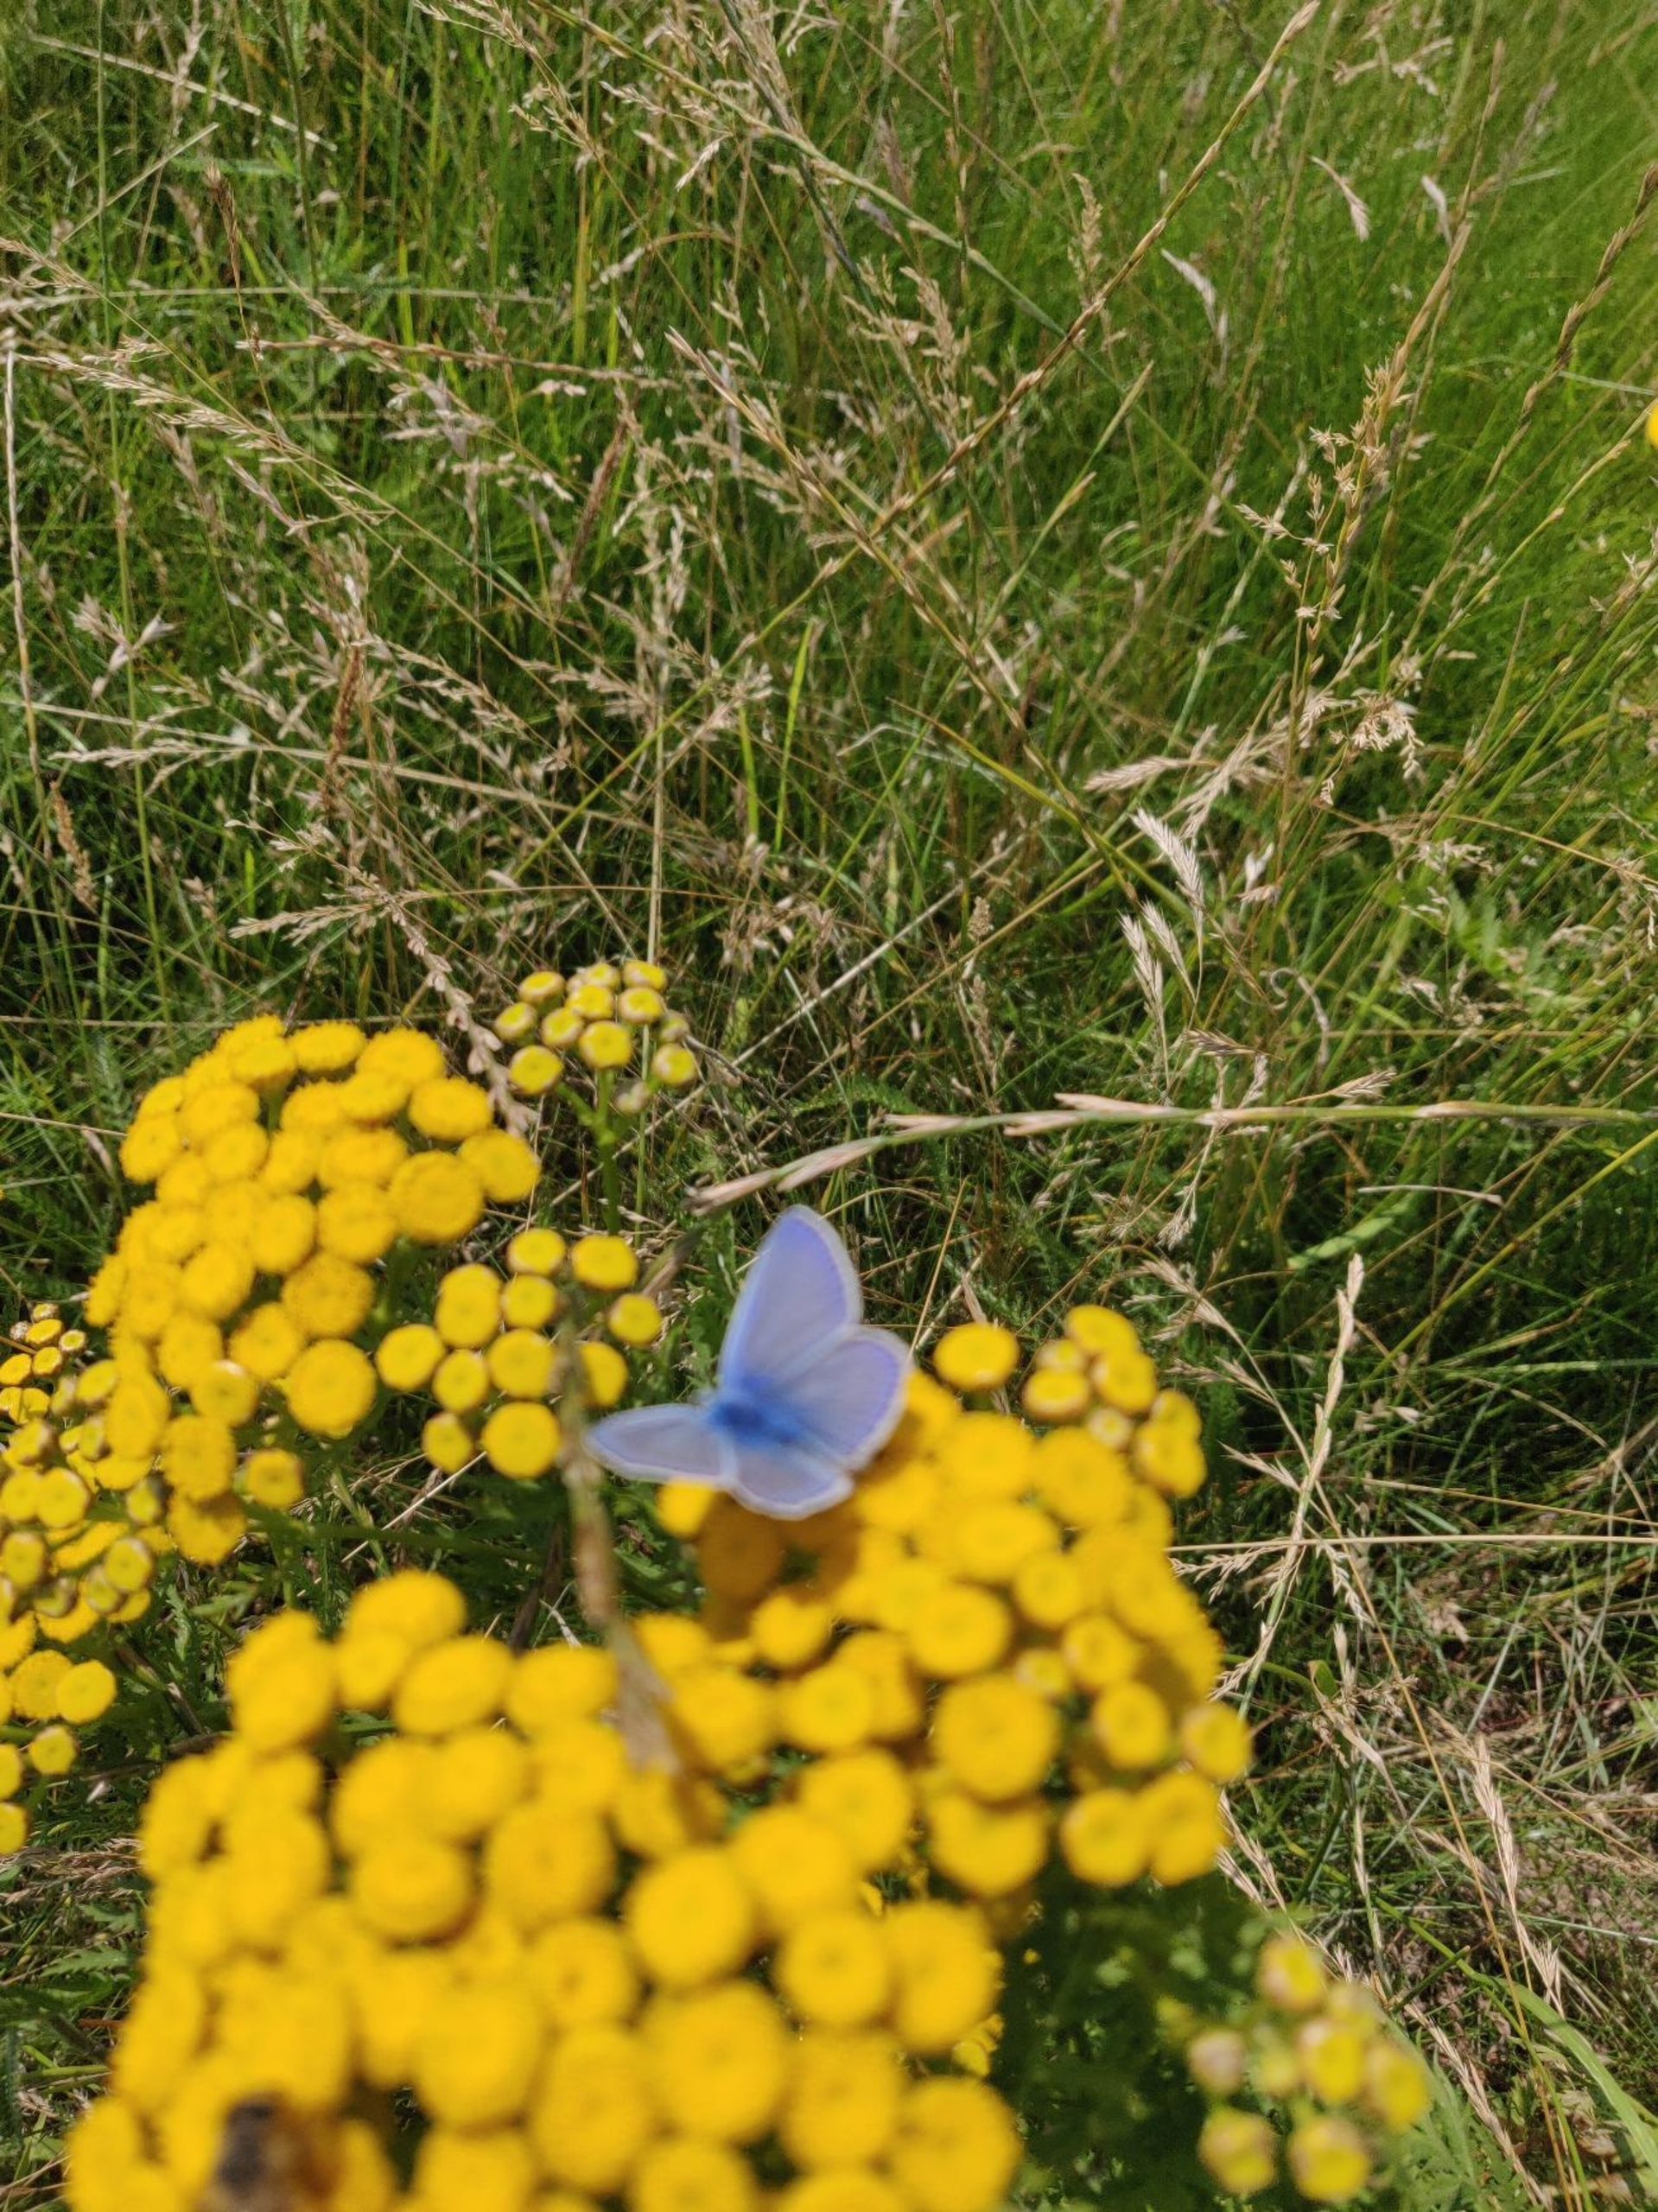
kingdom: Animalia
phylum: Arthropoda
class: Insecta
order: Lepidoptera
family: Lycaenidae
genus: Polyommatus
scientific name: Polyommatus icarus
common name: Almindelig blåfugl
